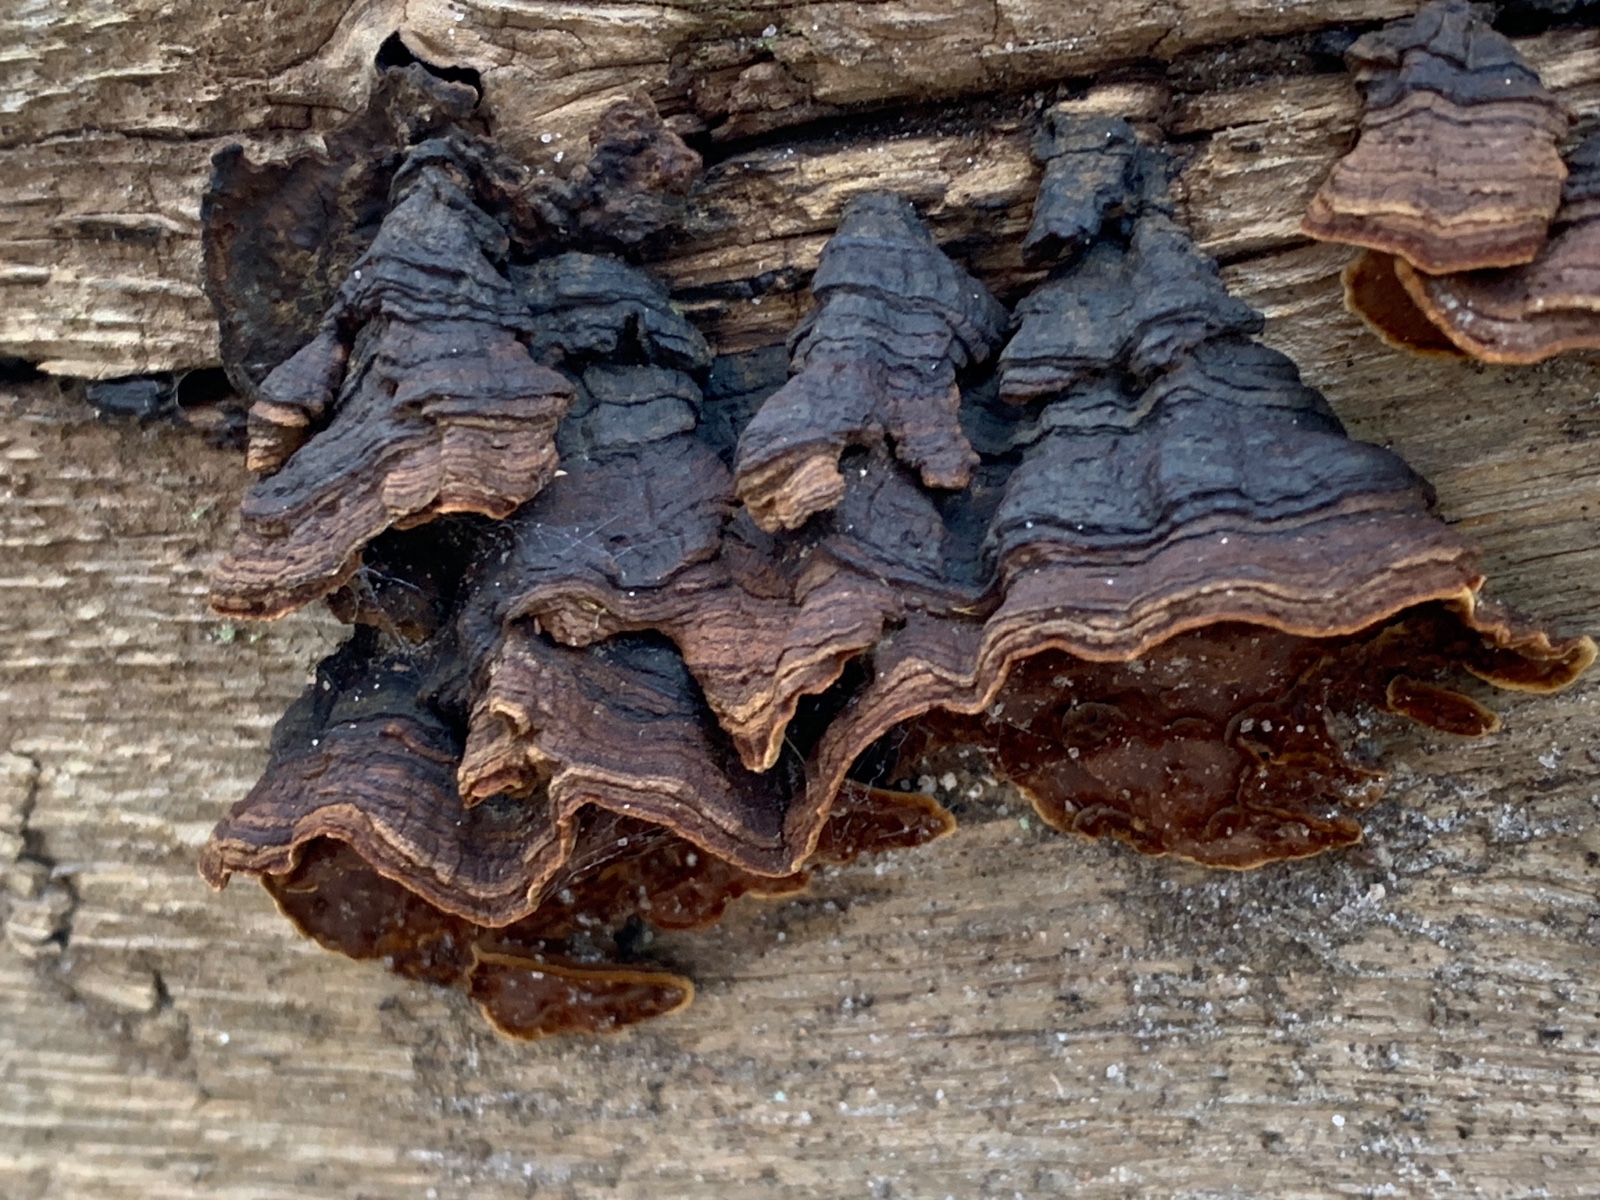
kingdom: Fungi
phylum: Basidiomycota
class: Agaricomycetes
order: Hymenochaetales
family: Hymenochaetaceae
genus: Hymenochaete
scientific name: Hymenochaete rubiginosa
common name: stiv ruslædersvamp
